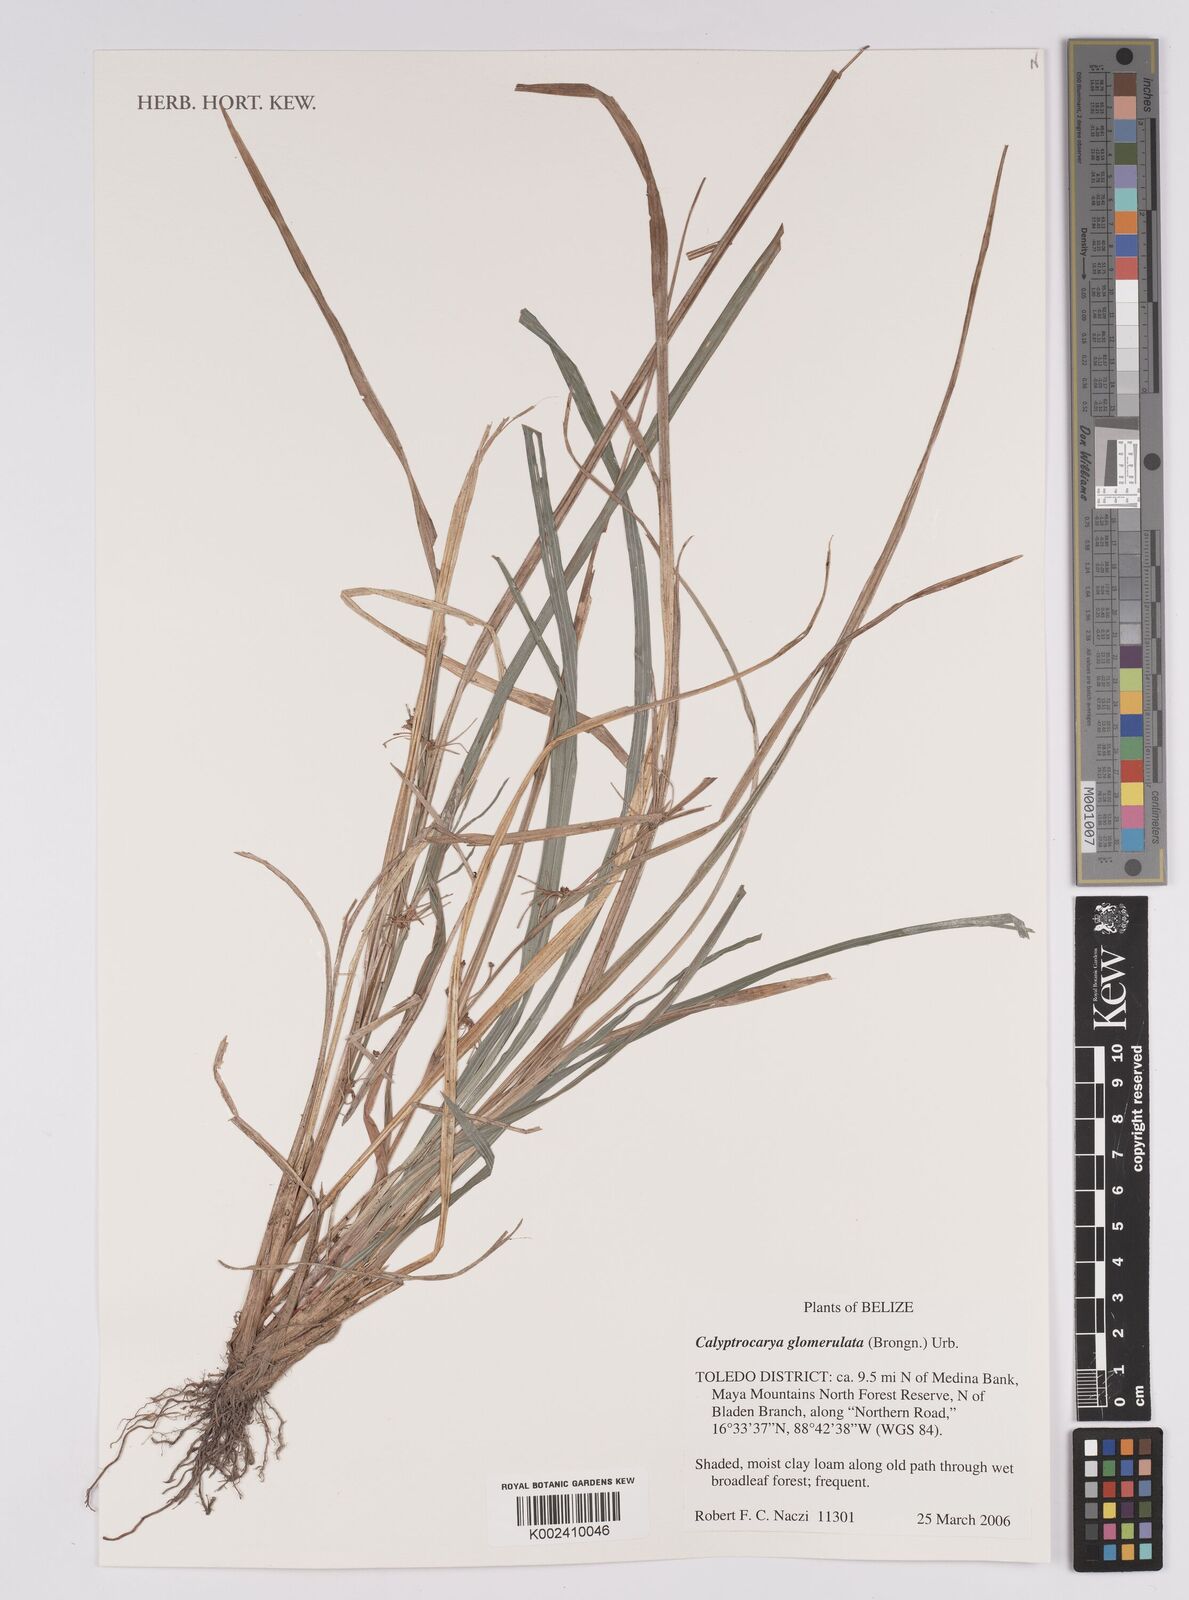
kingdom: Plantae
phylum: Tracheophyta
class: Liliopsida
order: Poales
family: Cyperaceae
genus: Calyptrocarya
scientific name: Calyptrocarya
